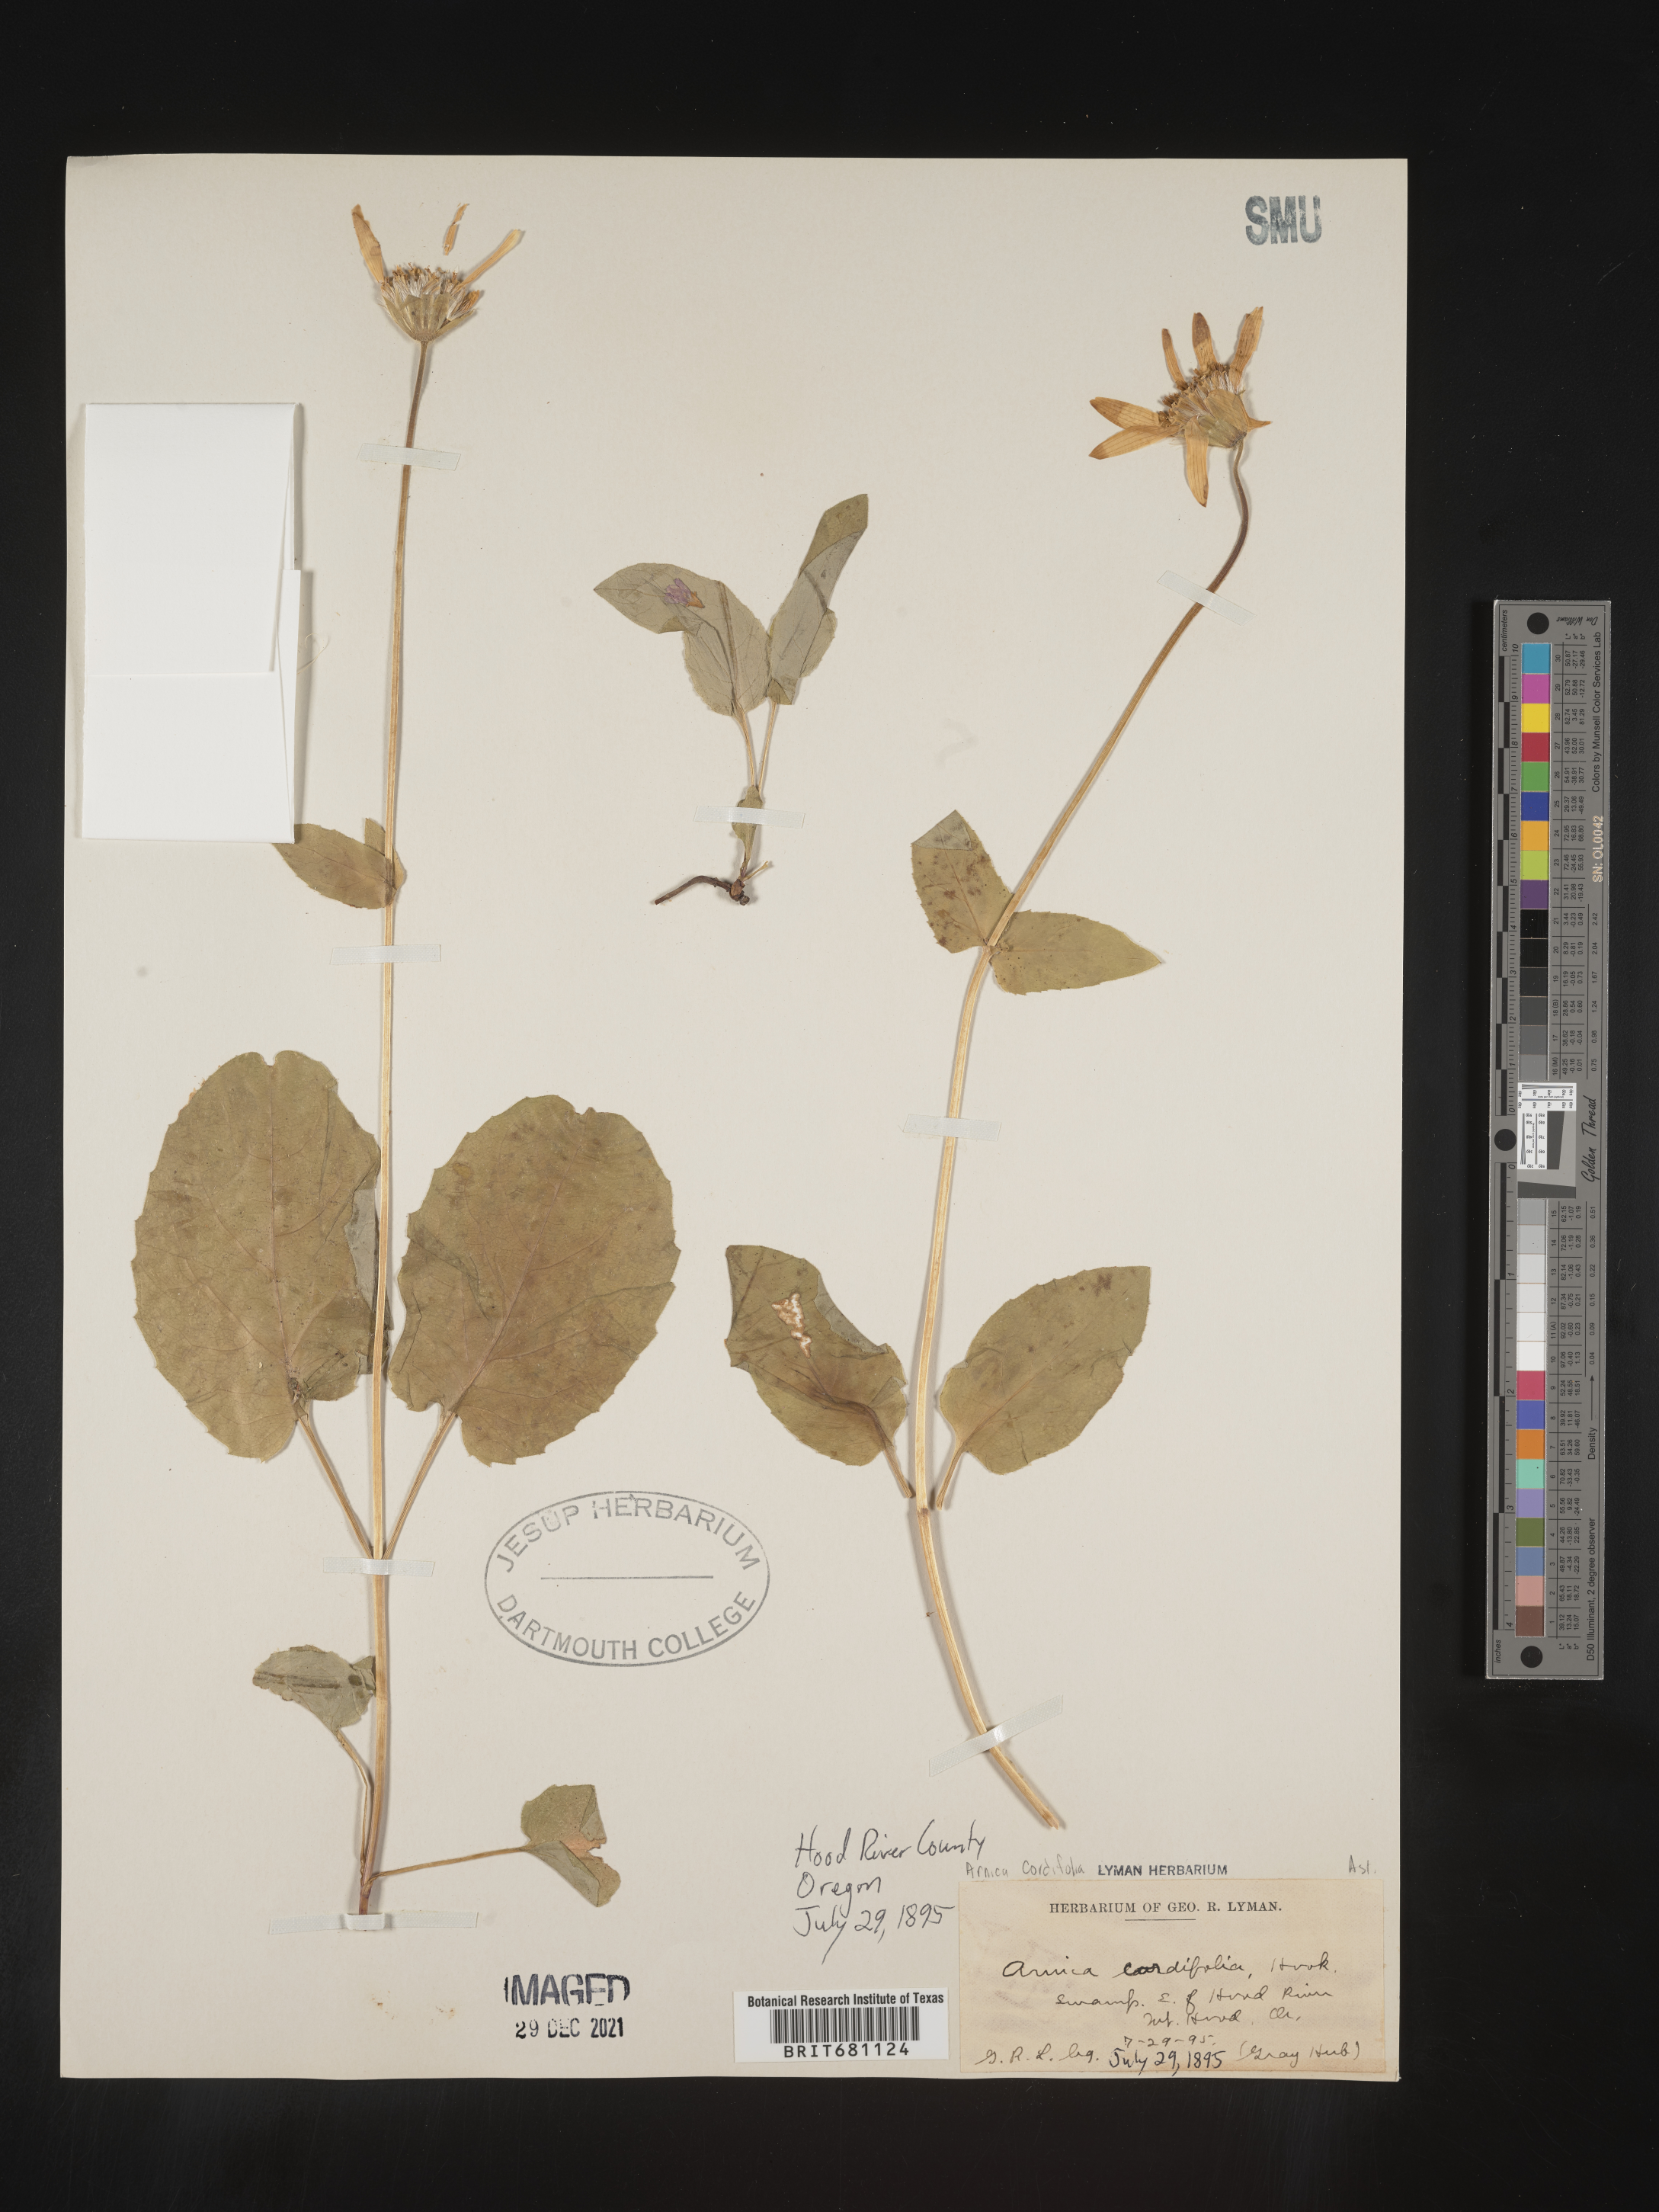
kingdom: Plantae
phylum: Tracheophyta
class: Magnoliopsida
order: Asterales
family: Asteraceae
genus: Arnica
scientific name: Arnica cordifolia
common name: Heart-leaf arnica
